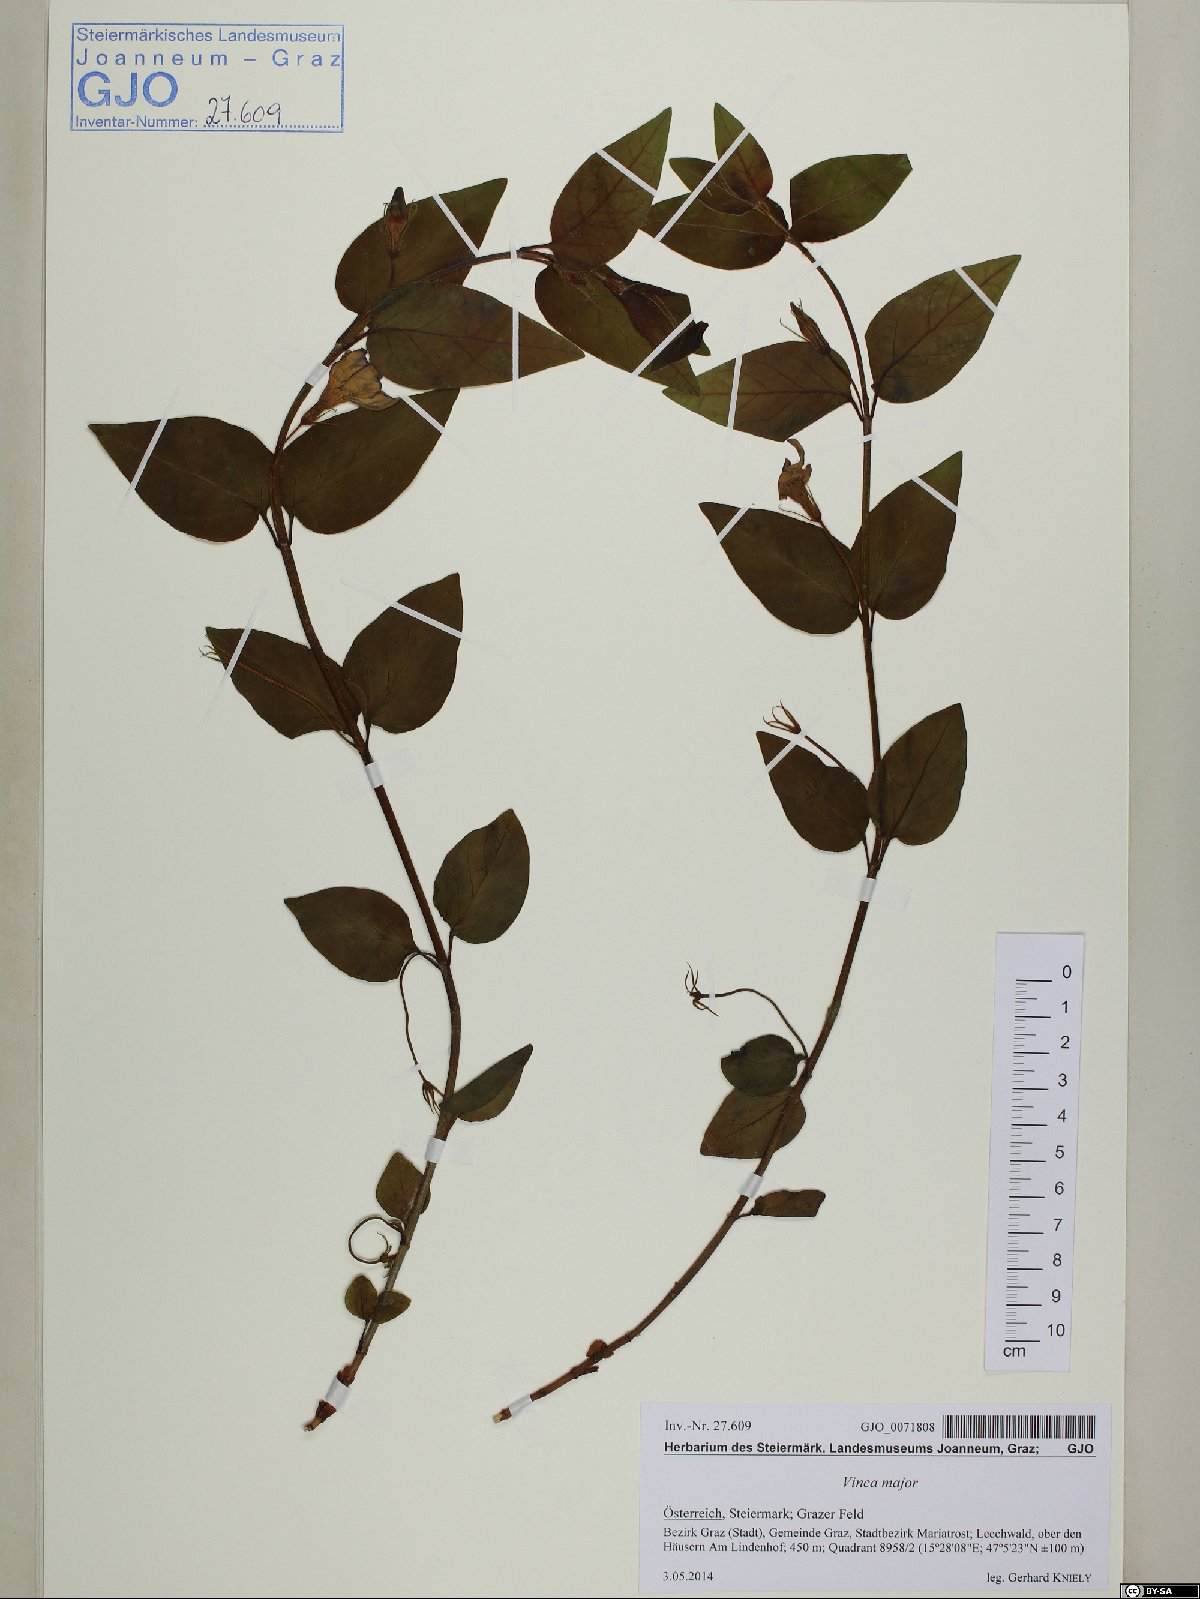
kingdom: Plantae
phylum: Tracheophyta
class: Magnoliopsida
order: Gentianales
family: Apocynaceae
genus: Vinca
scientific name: Vinca major
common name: Greater periwinkle
